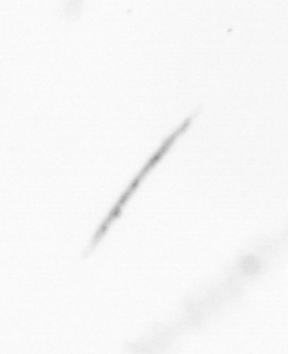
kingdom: Chromista
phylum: Ochrophyta
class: Bacillariophyceae
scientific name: Bacillariophyceae
